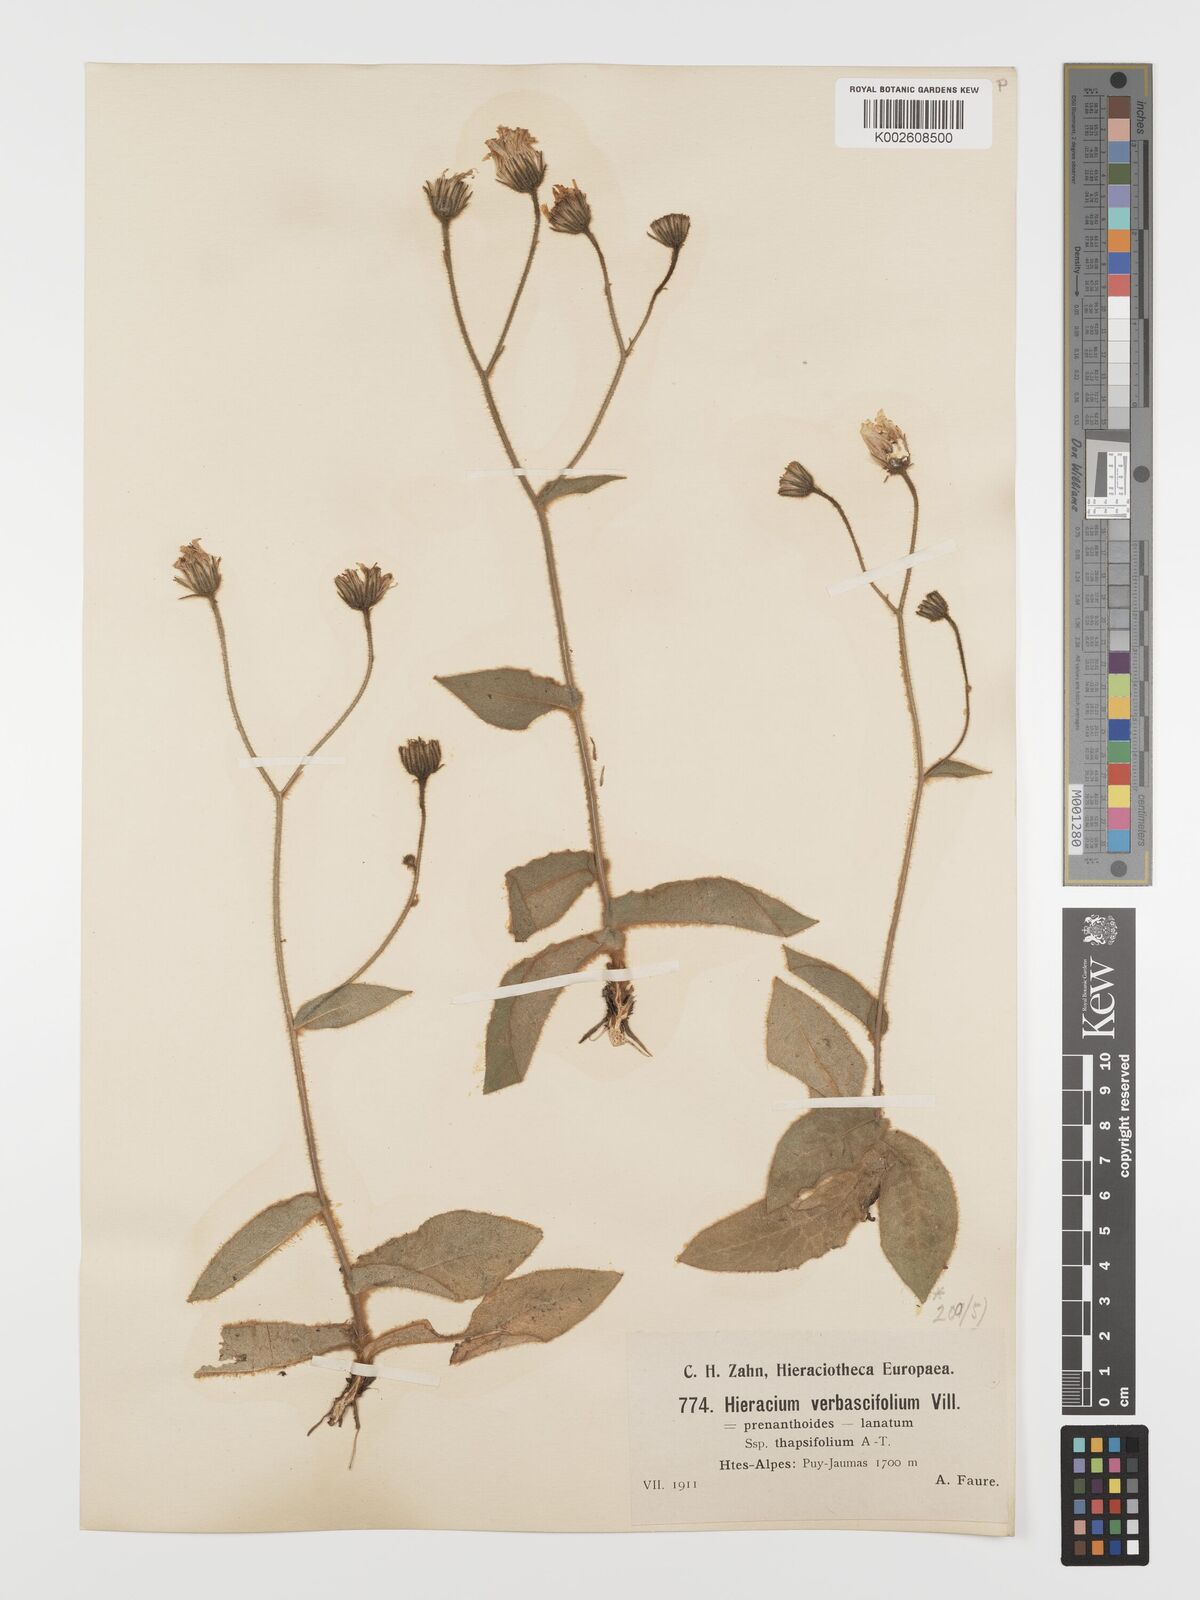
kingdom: Plantae
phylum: Tracheophyta
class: Magnoliopsida
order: Asterales
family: Asteraceae
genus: Hieracium
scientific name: Hieracium verbascifolium
